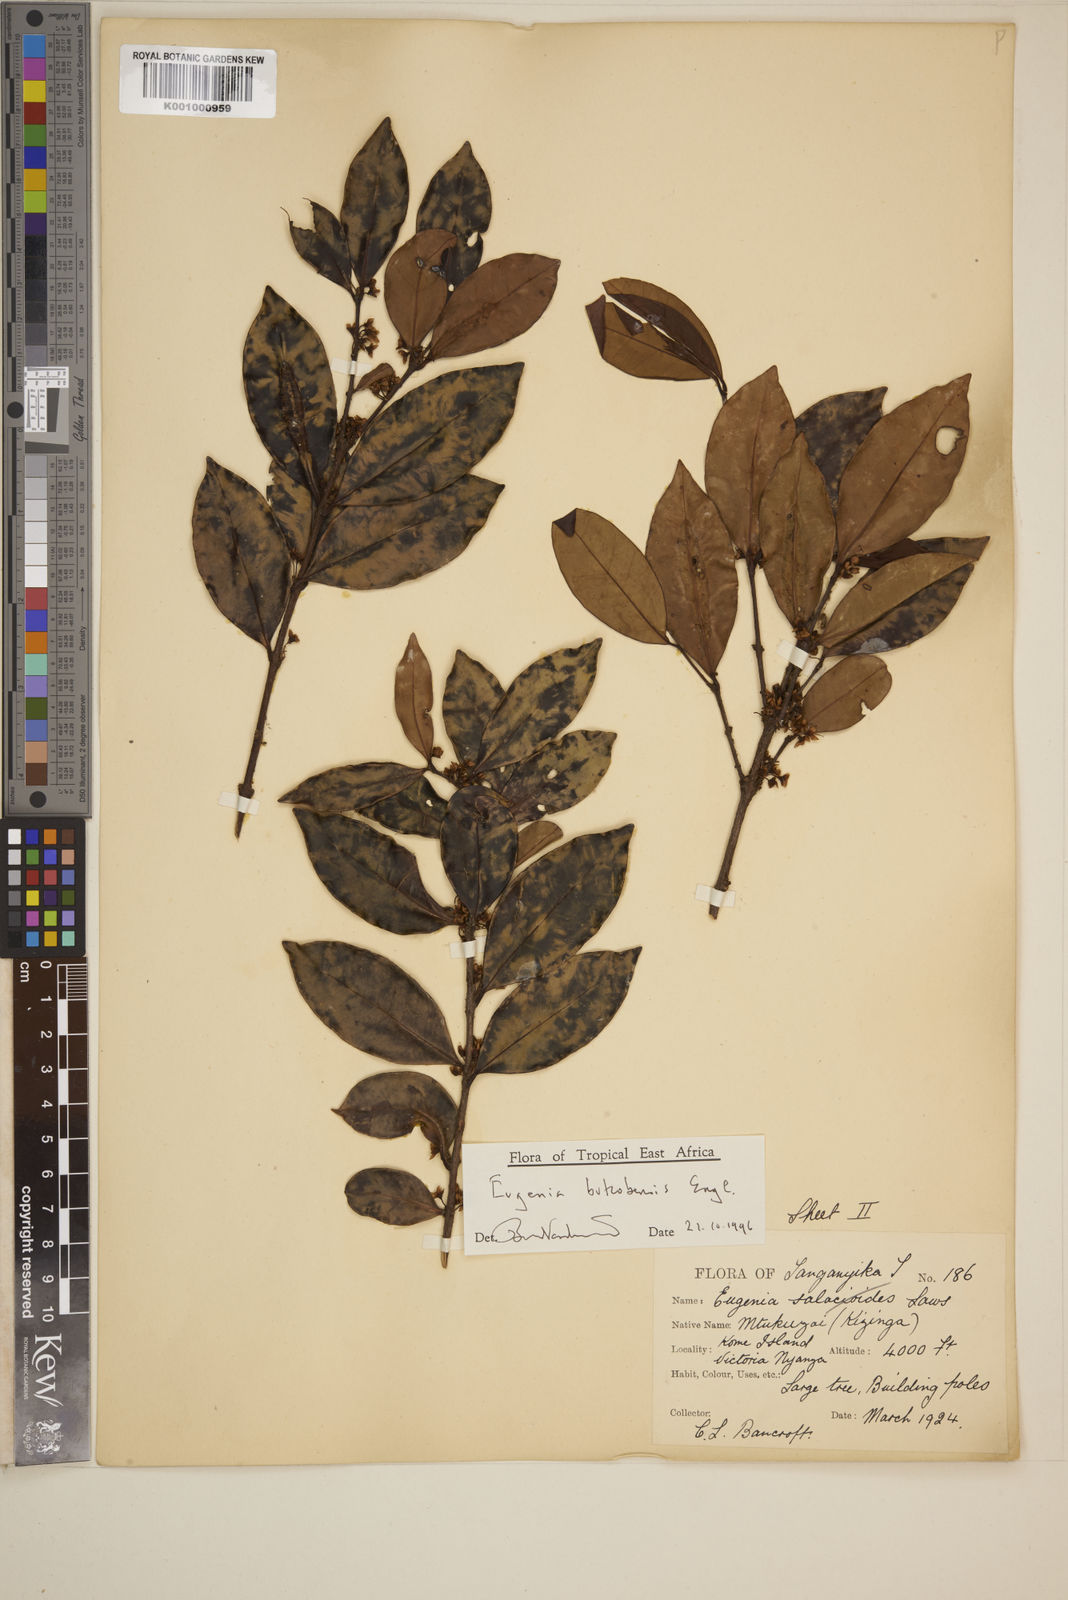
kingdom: Plantae
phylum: Tracheophyta
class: Magnoliopsida
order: Myrtales
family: Myrtaceae
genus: Eugenia
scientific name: Eugenia bukobensis
